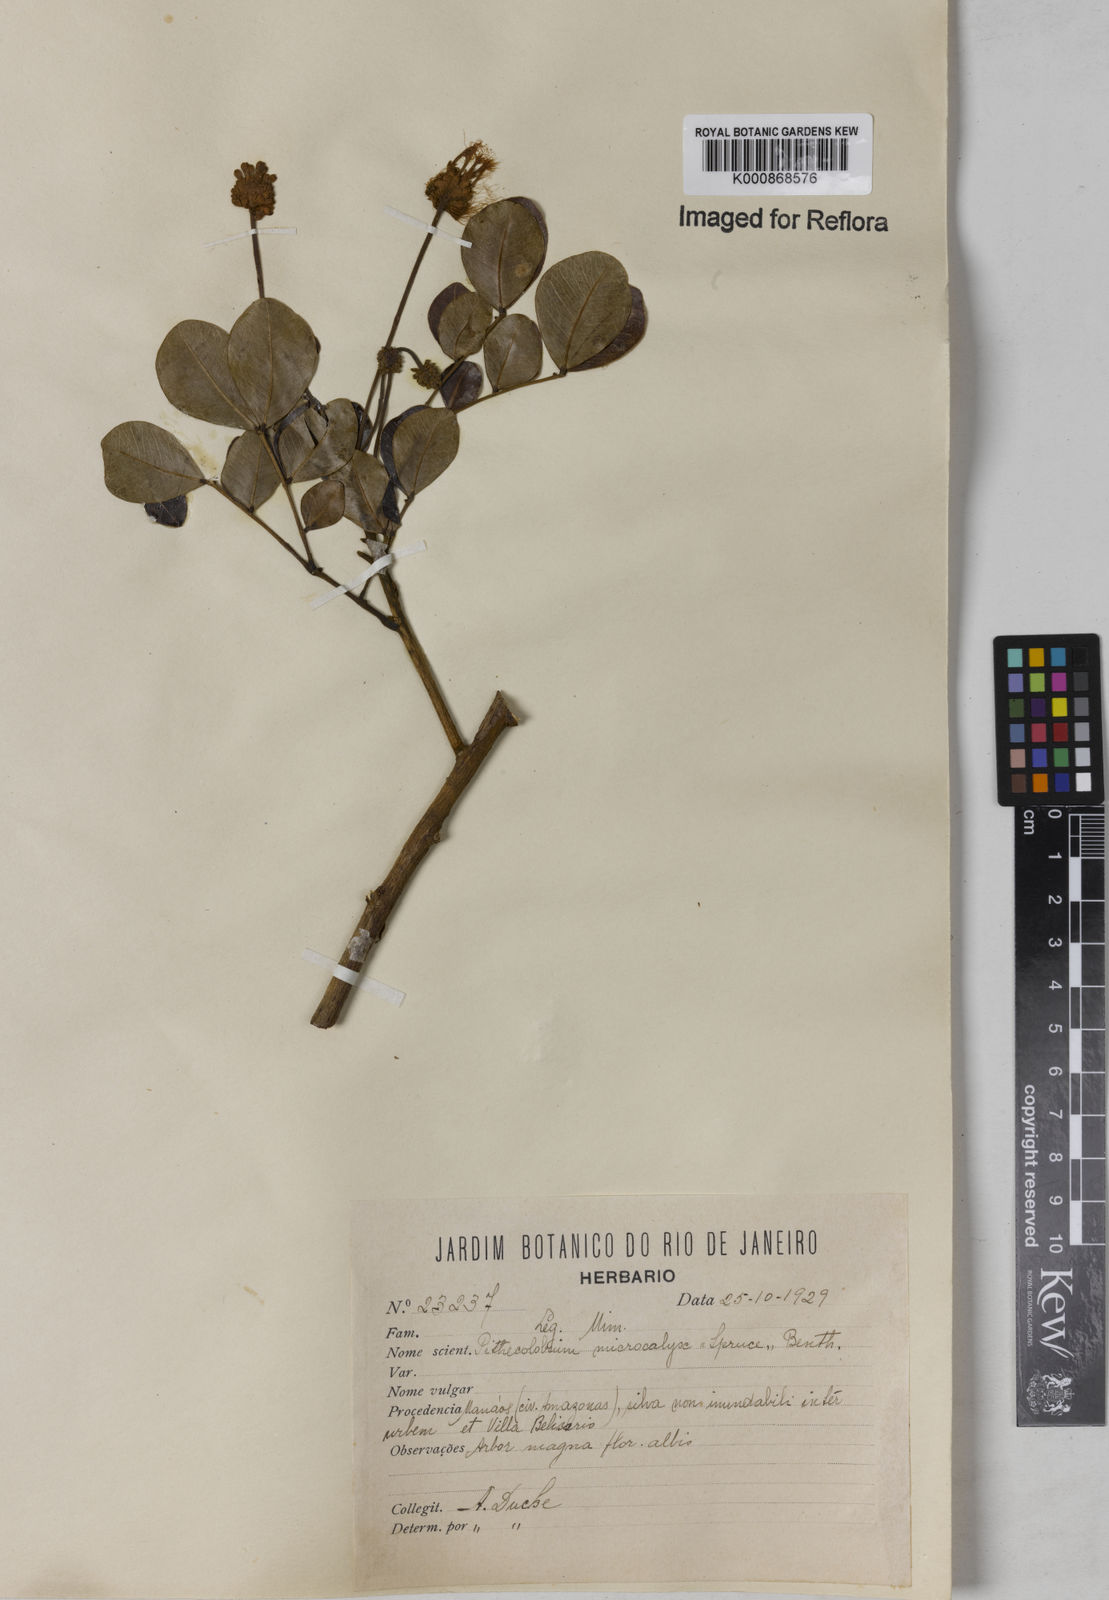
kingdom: Plantae
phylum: Tracheophyta
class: Magnoliopsida
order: Fabales
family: Fabaceae
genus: Jupunba
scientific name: Jupunba microcalyx
